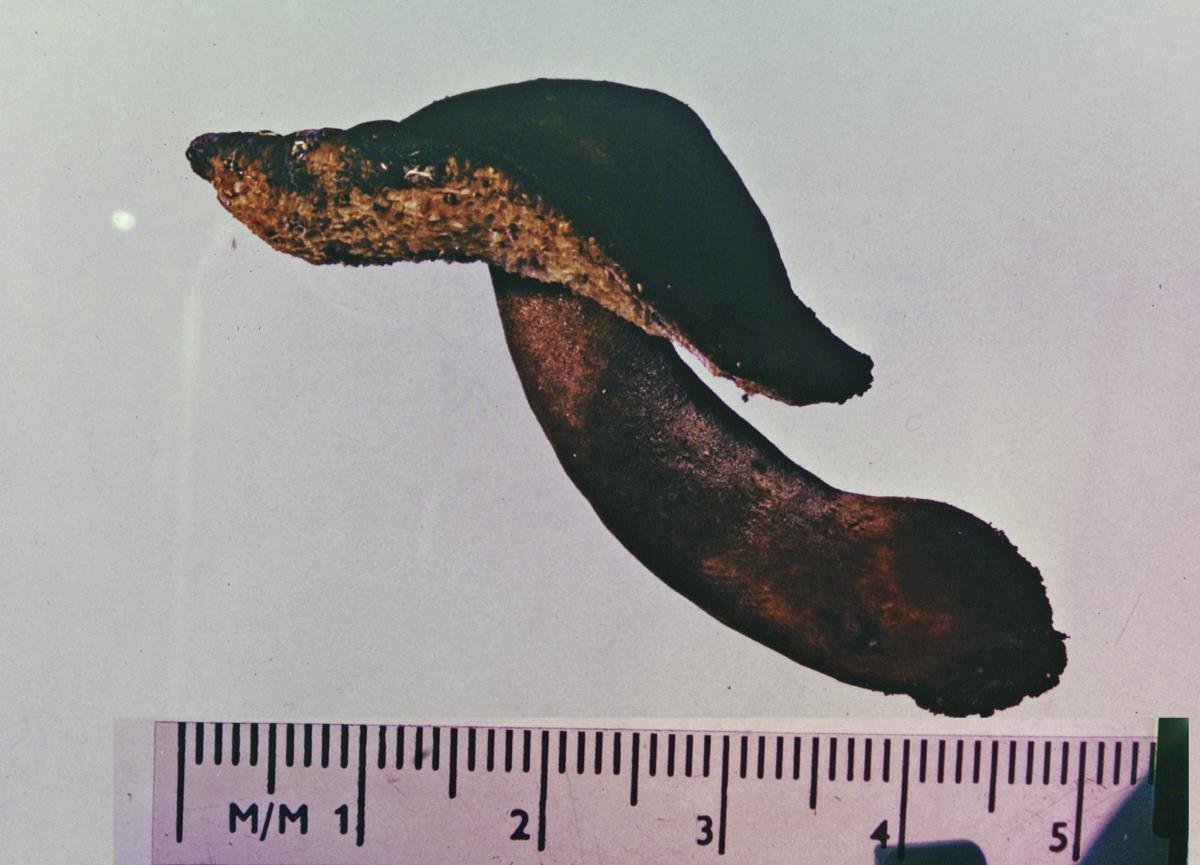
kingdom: Fungi
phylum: Basidiomycota
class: Agaricomycetes
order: Boletales
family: Gyroporaceae
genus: Gyroporus
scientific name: Gyroporus mcnabbii
